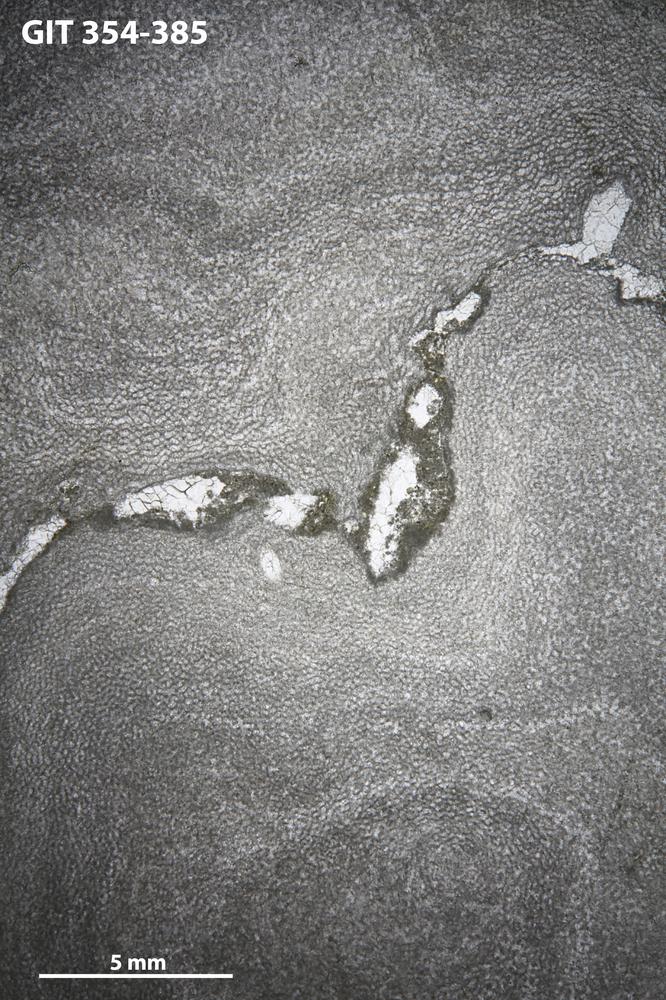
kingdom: Animalia
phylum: Porifera
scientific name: Porifera
